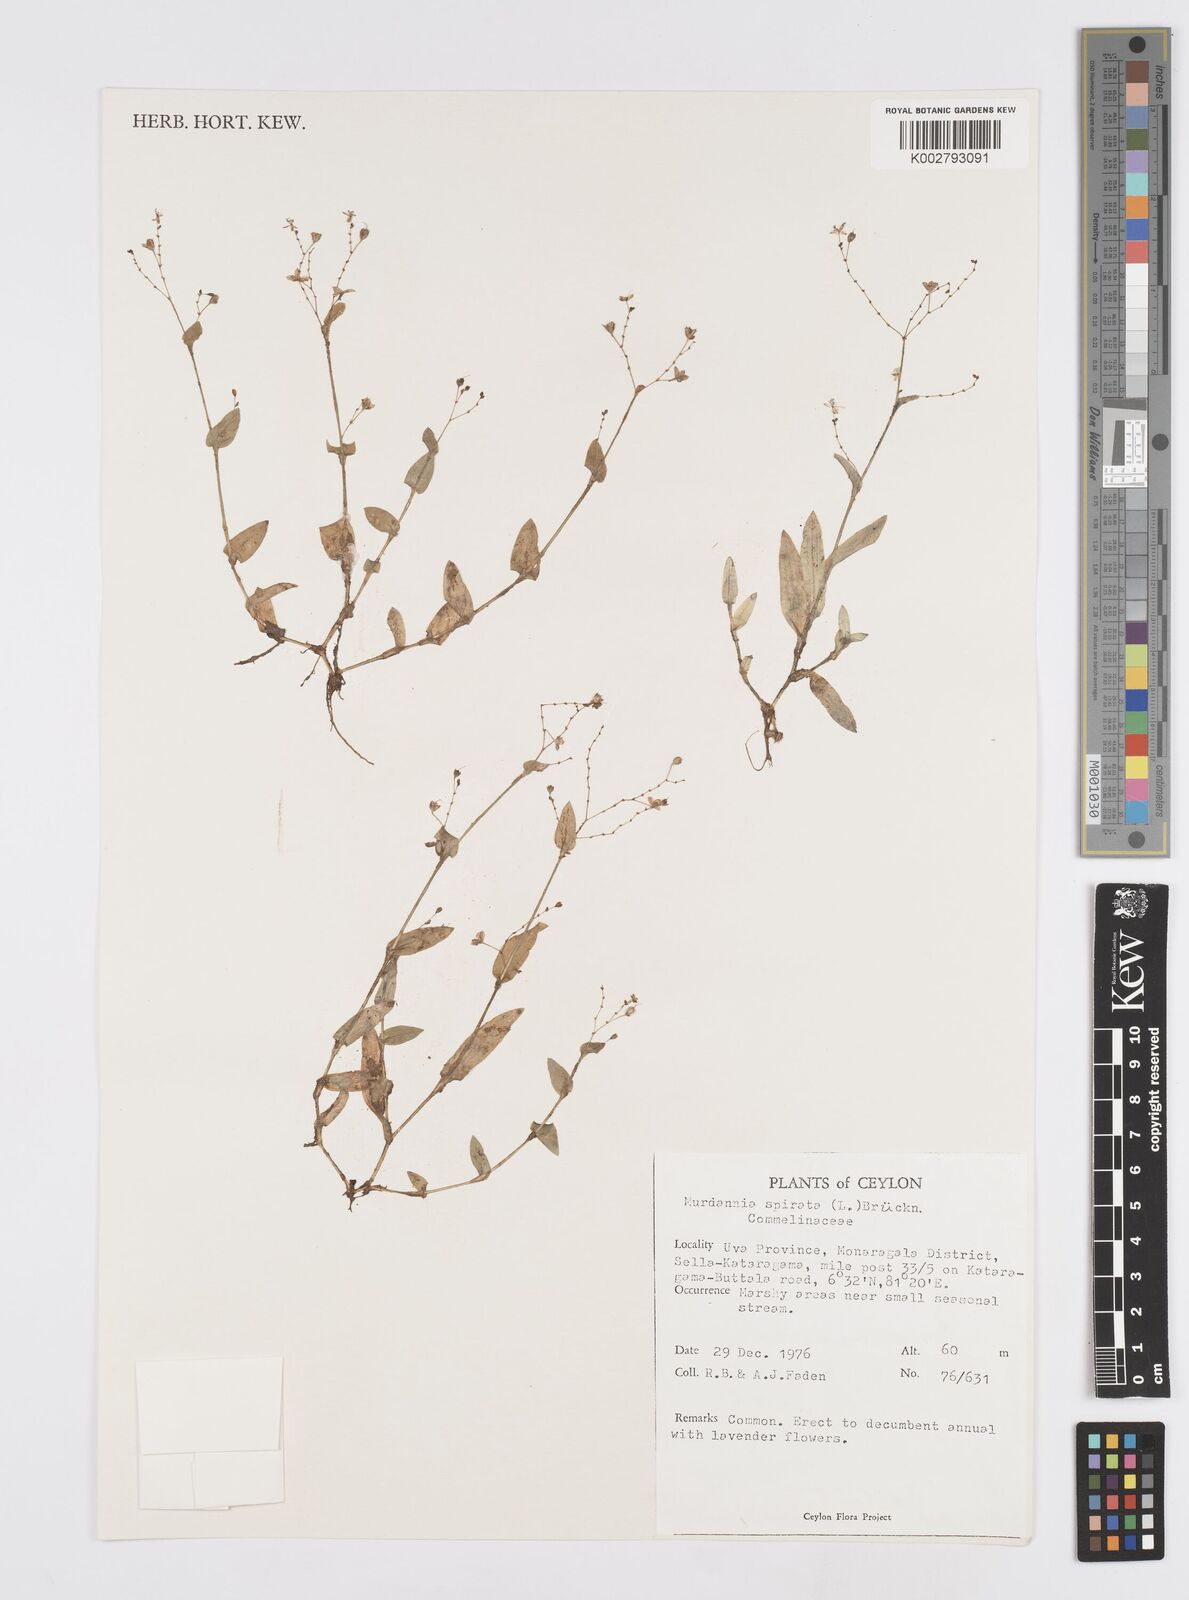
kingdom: Plantae
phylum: Tracheophyta
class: Liliopsida
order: Commelinales
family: Commelinaceae
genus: Murdannia
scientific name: Murdannia spirata
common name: Asiatic dewflower
